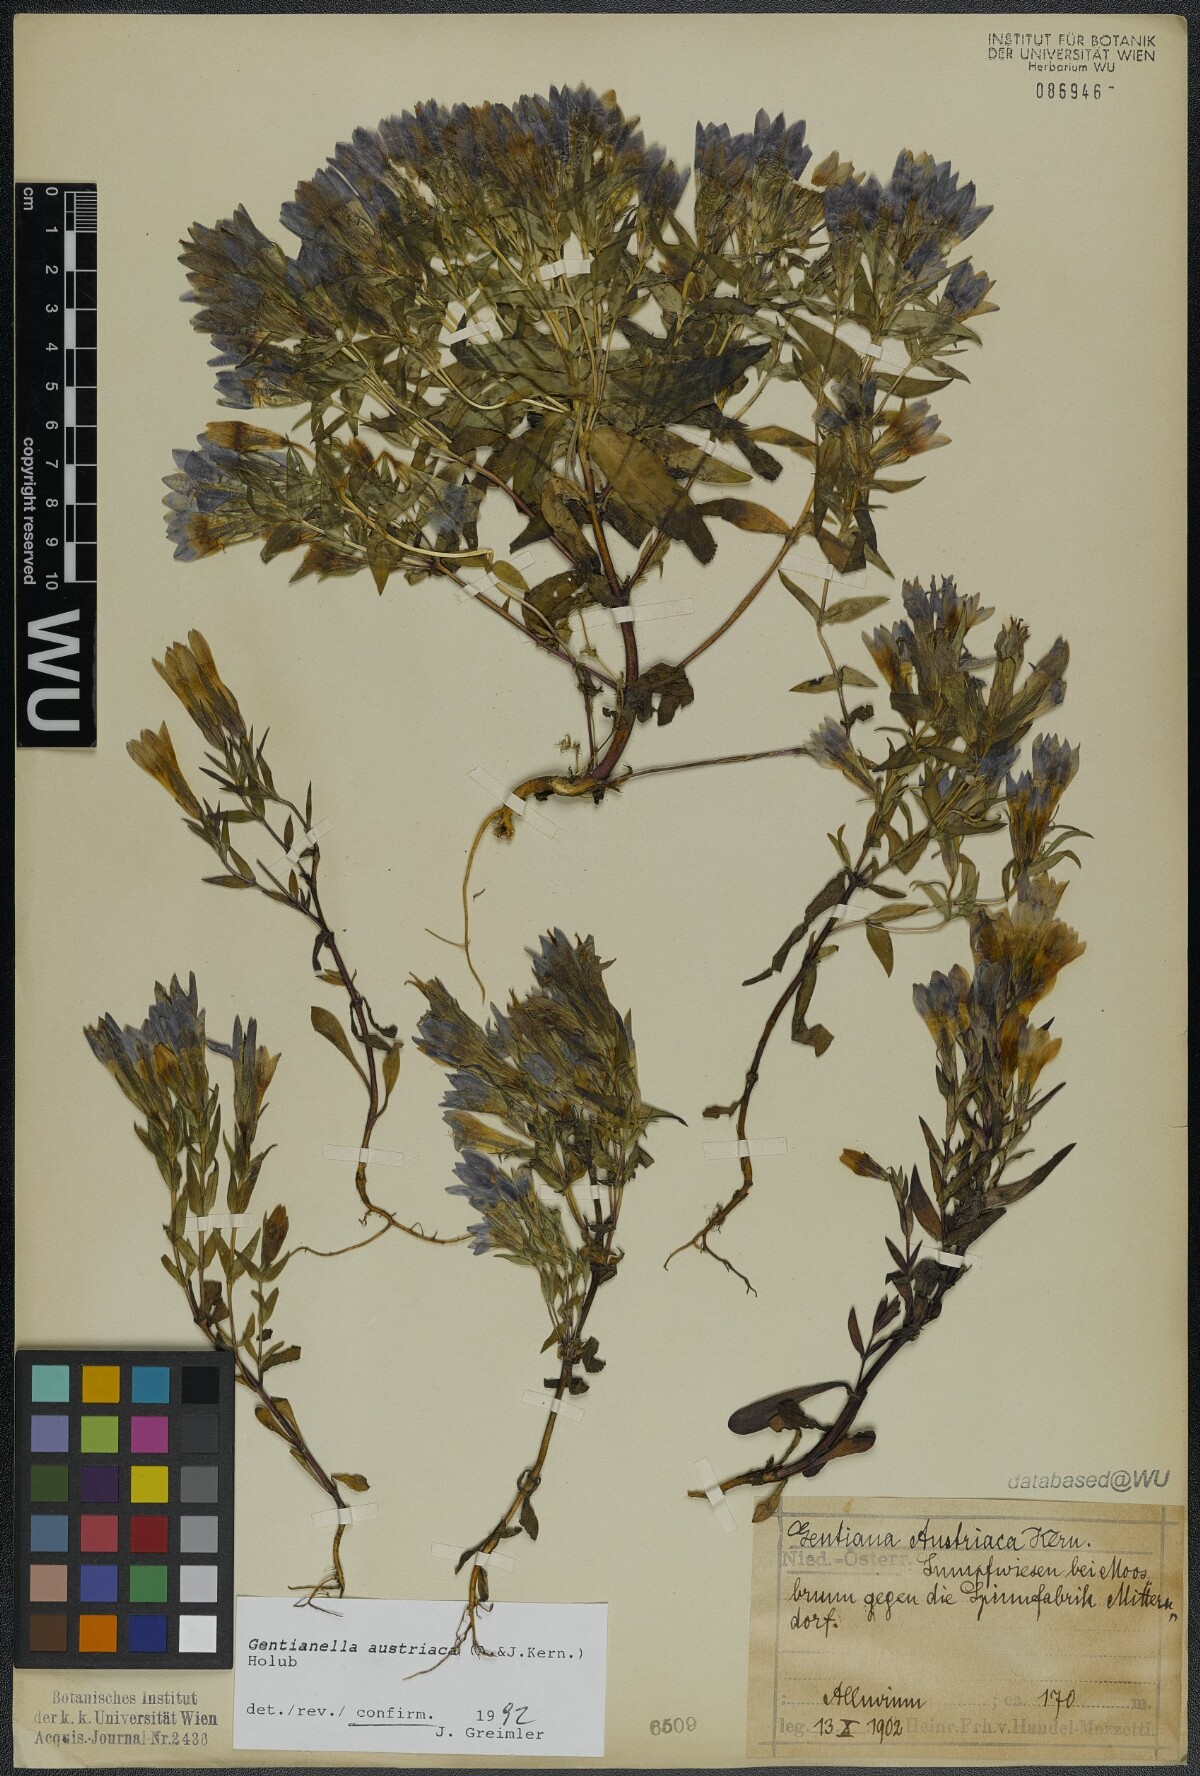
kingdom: Plantae
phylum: Tracheophyta
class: Magnoliopsida
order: Gentianales
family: Gentianaceae
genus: Gentianella
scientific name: Gentianella austriaca
